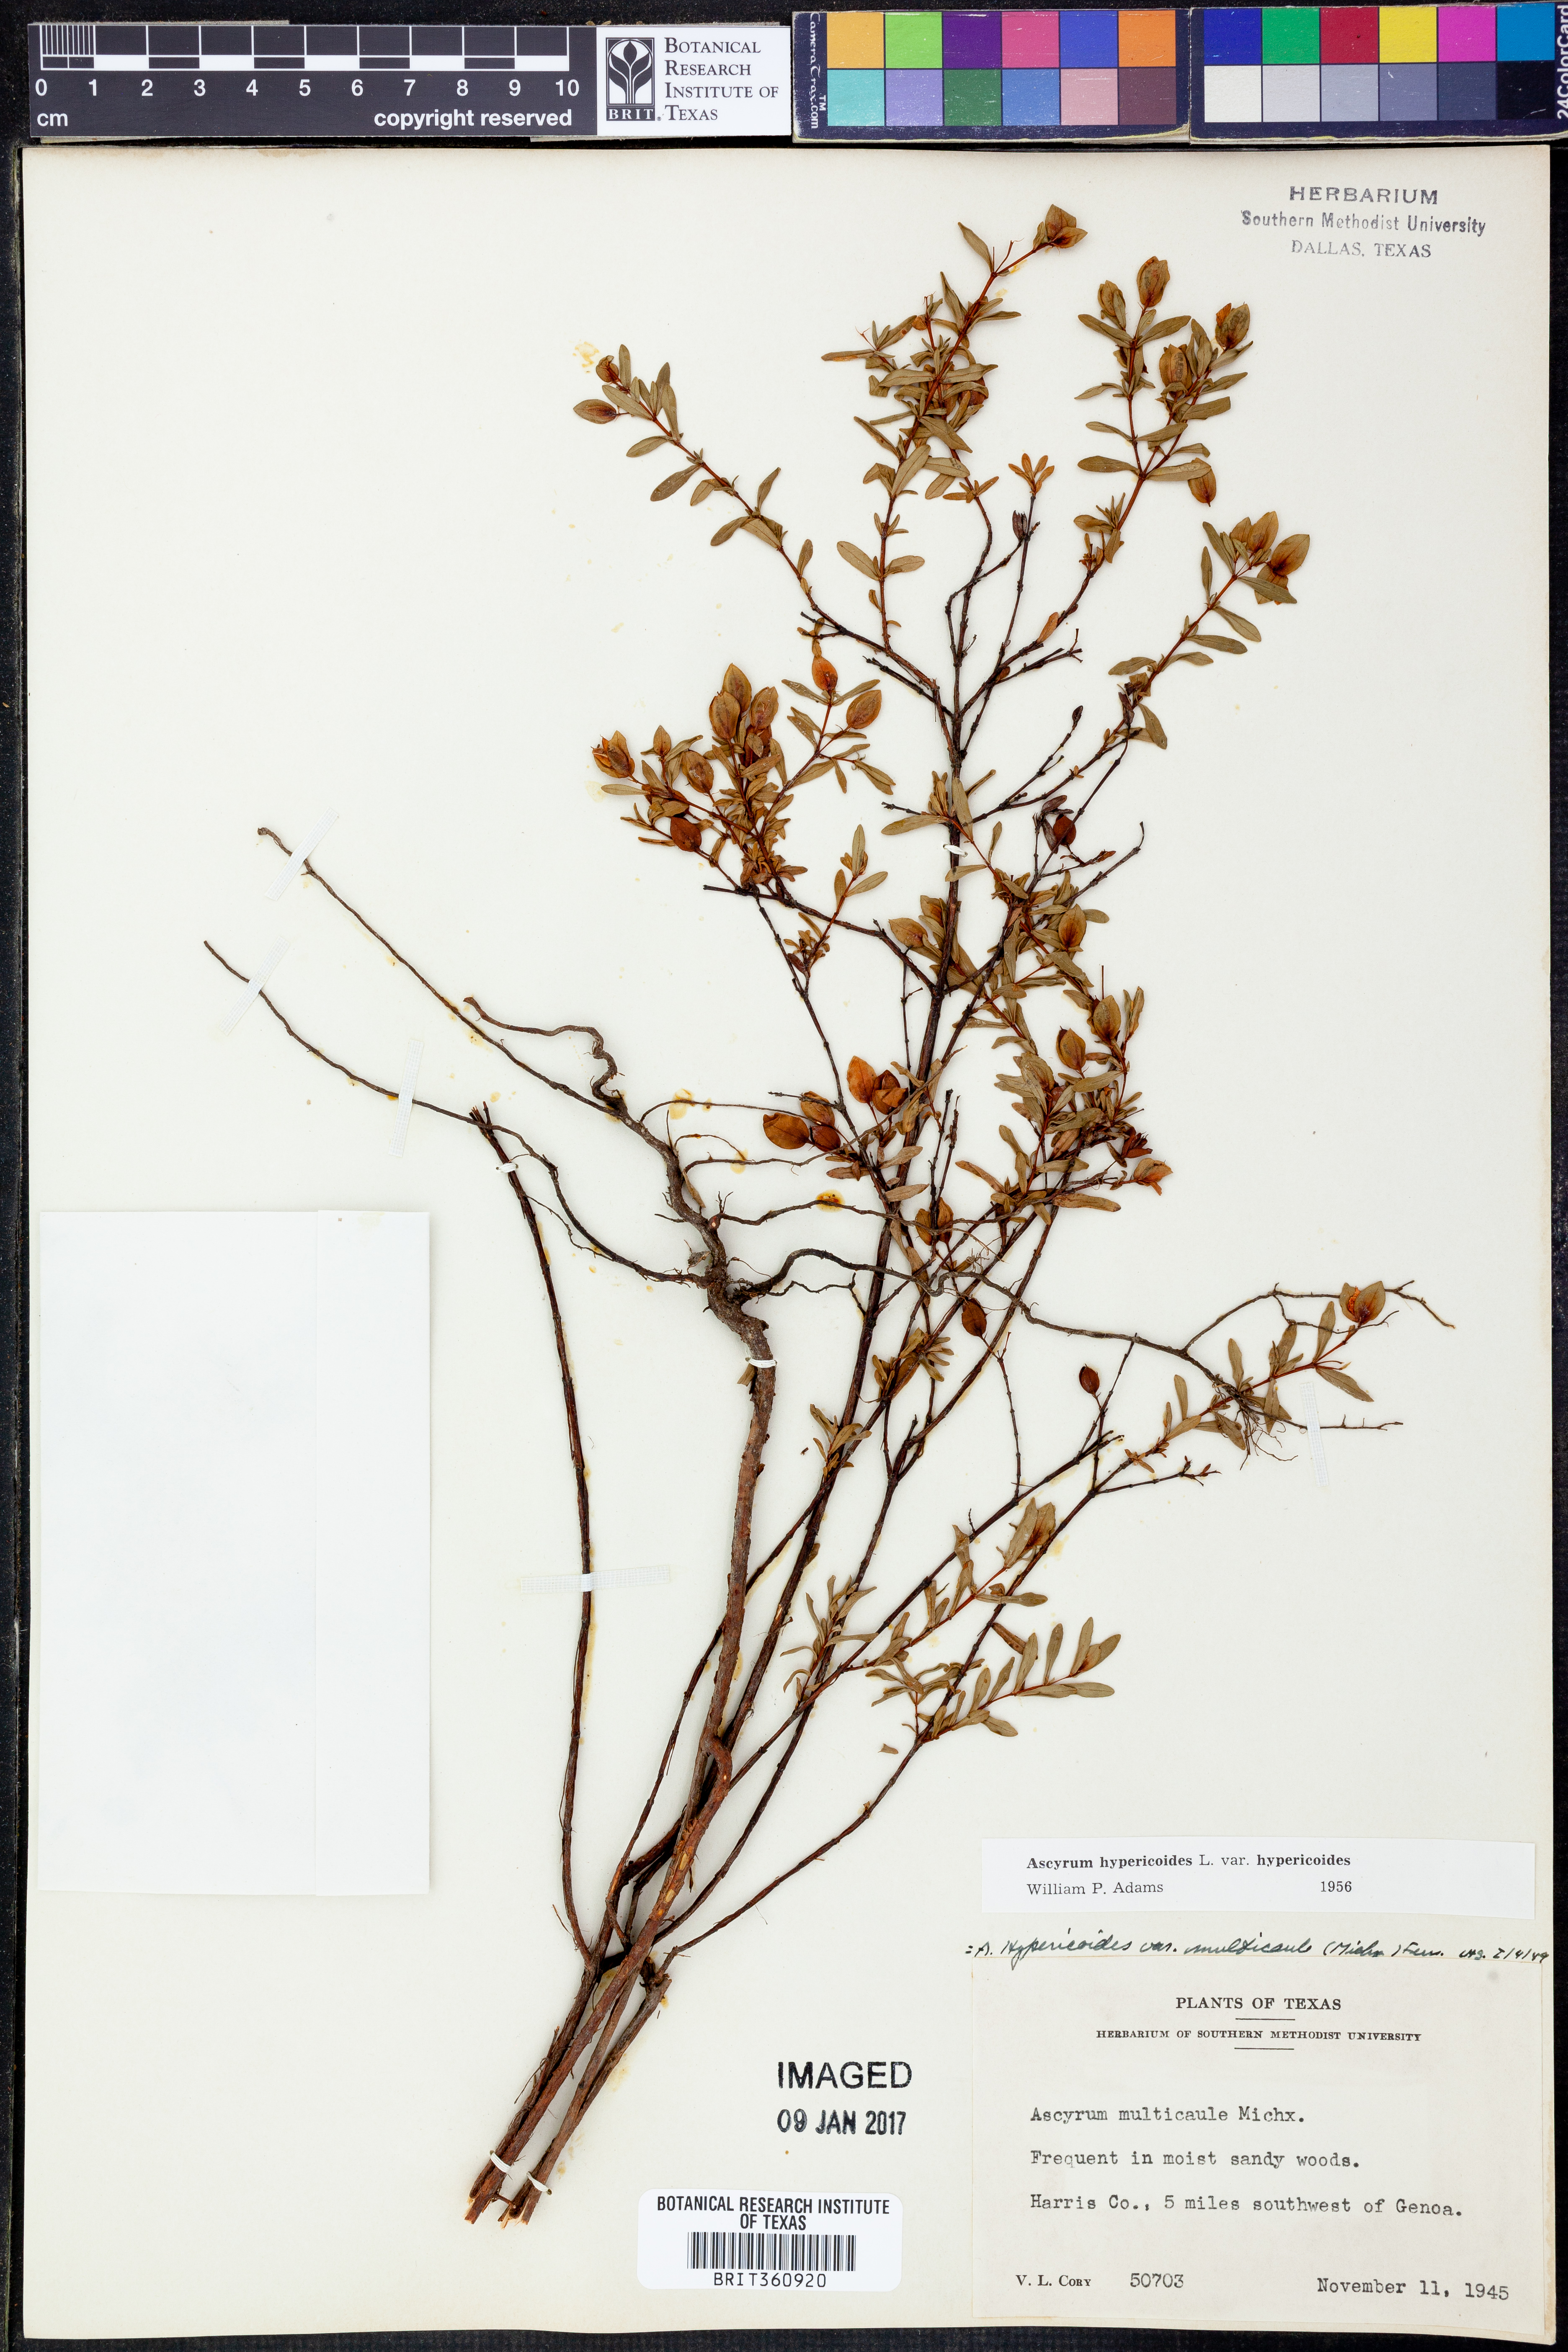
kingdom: Plantae
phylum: Tracheophyta
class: Magnoliopsida
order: Malpighiales
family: Hypericaceae
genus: Hypericum
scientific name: Hypericum hypericoides
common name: St. andrew's cross
